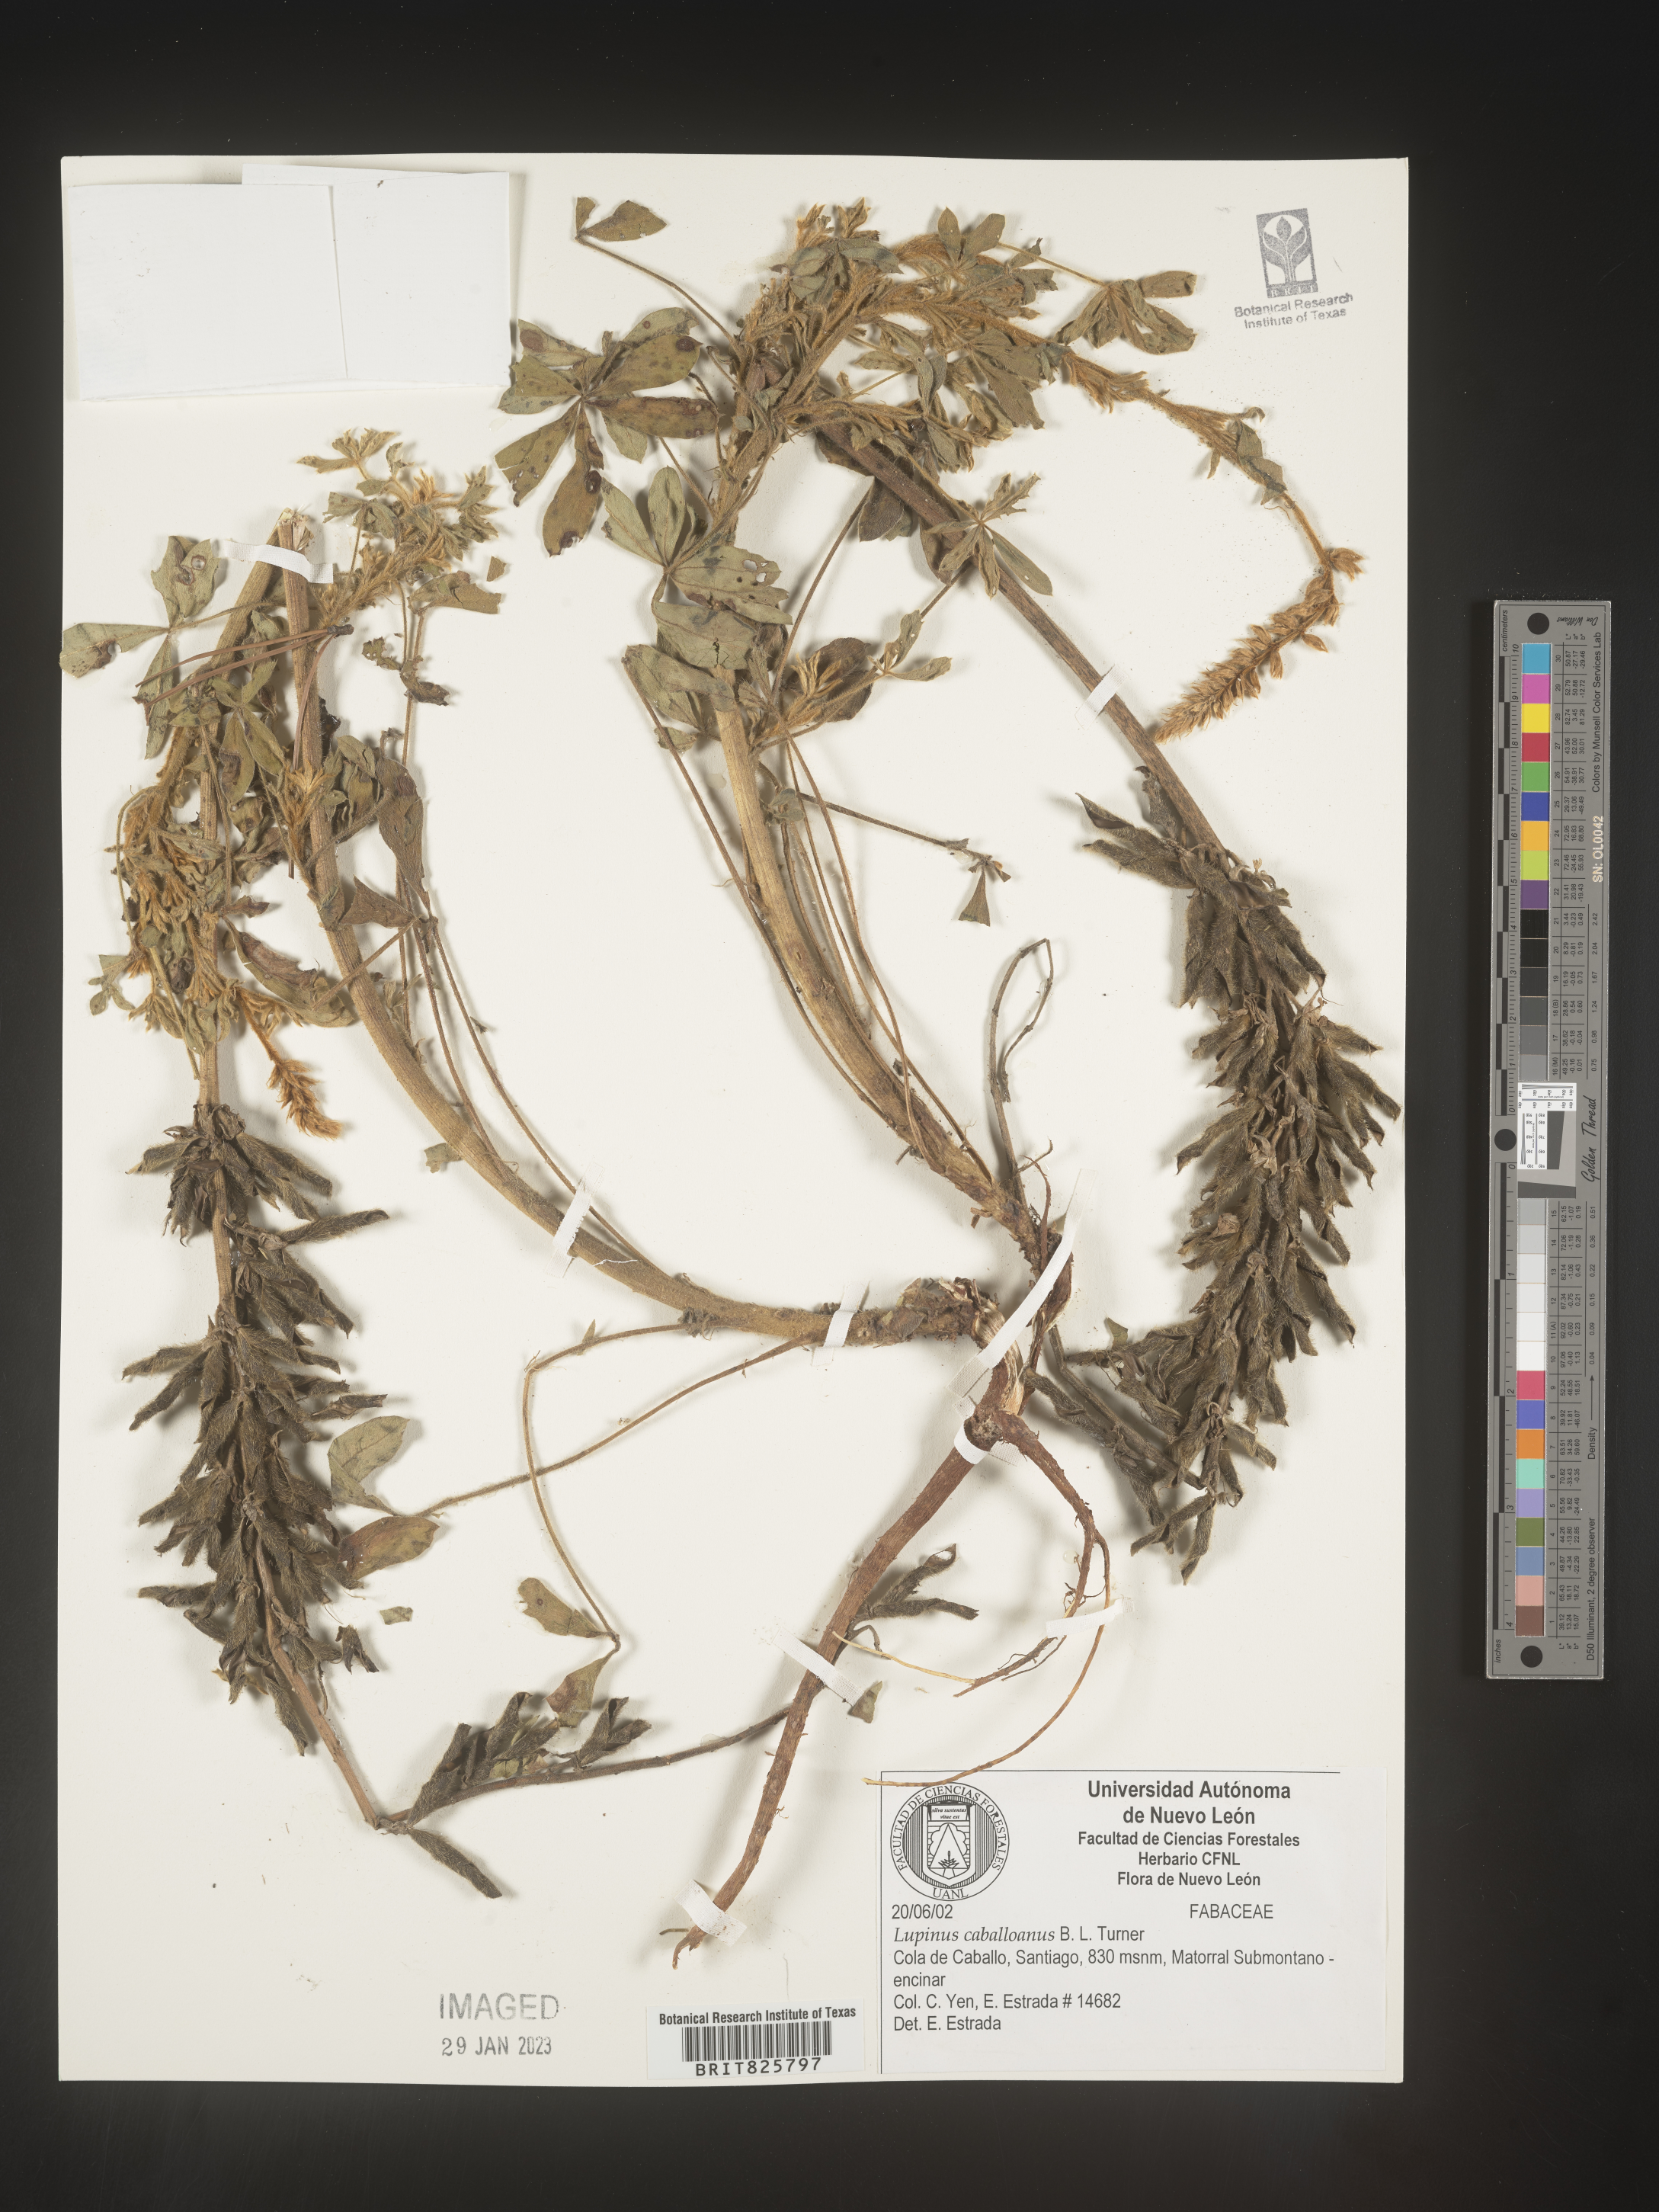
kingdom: Plantae
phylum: Tracheophyta
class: Magnoliopsida
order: Fabales
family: Fabaceae
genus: Lupinus
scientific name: Lupinus
